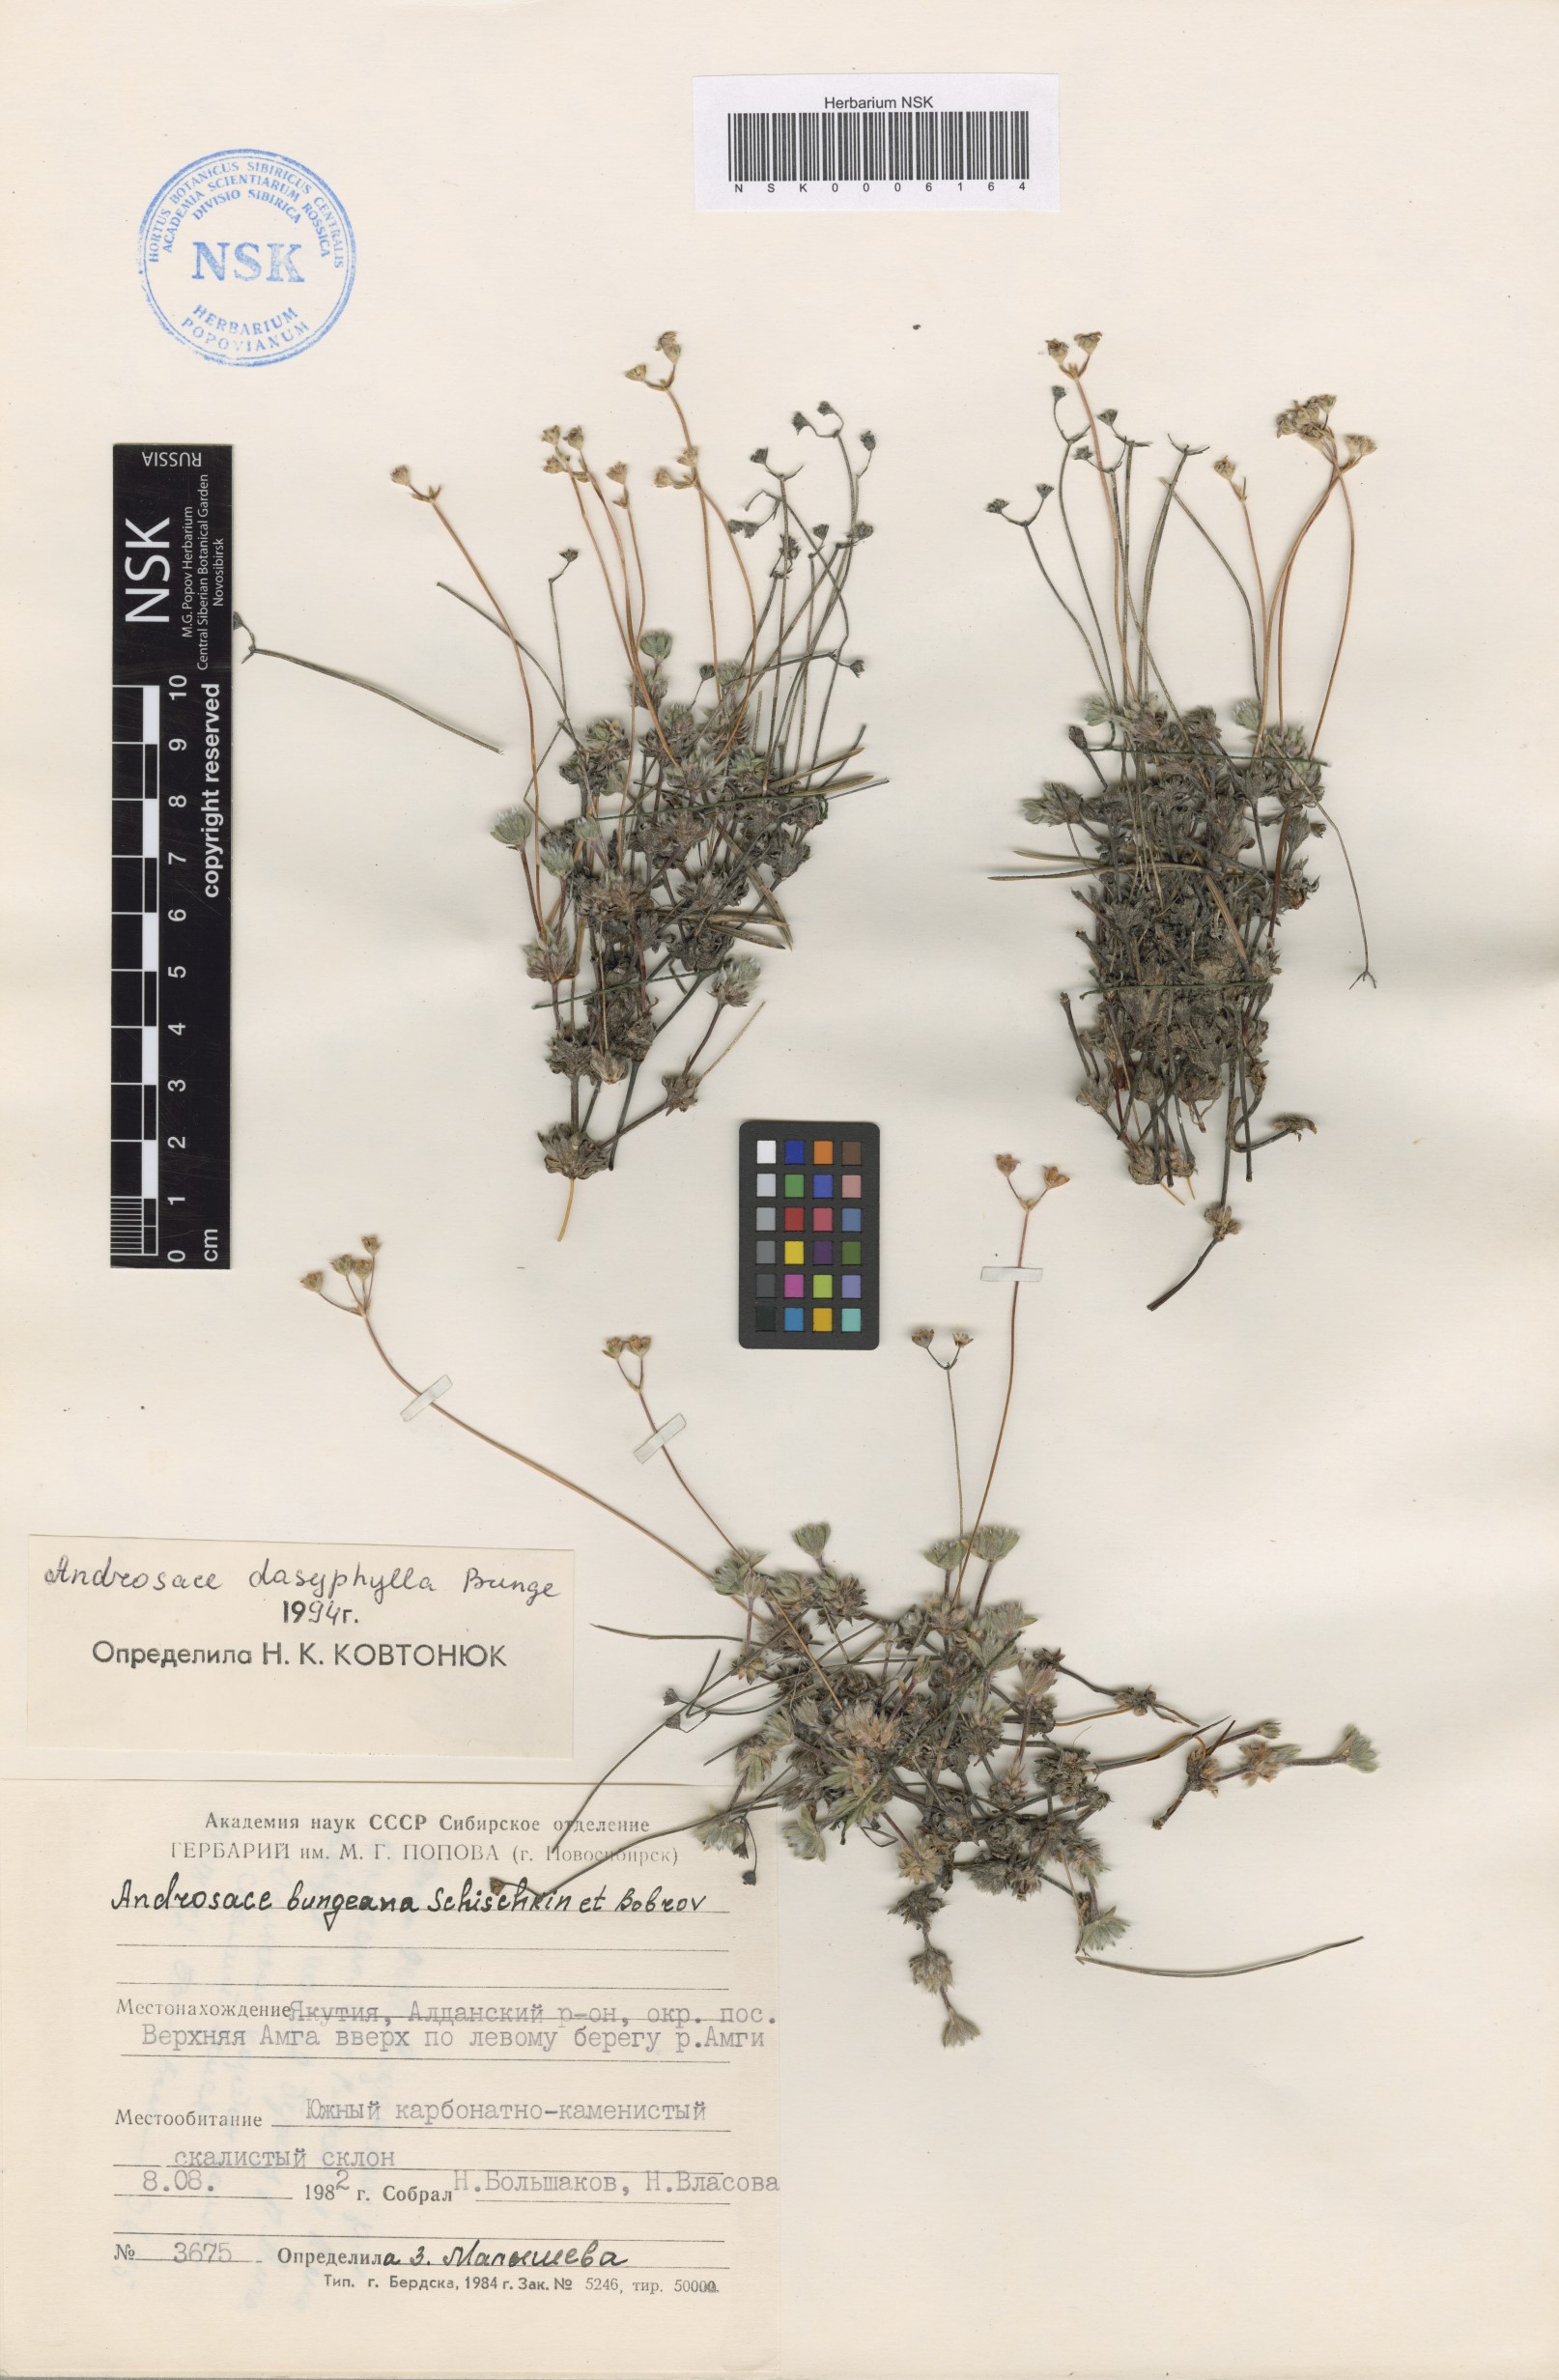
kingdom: Plantae
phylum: Tracheophyta
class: Magnoliopsida
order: Ericales
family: Primulaceae
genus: Androsace
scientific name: Androsace dasyphylla
